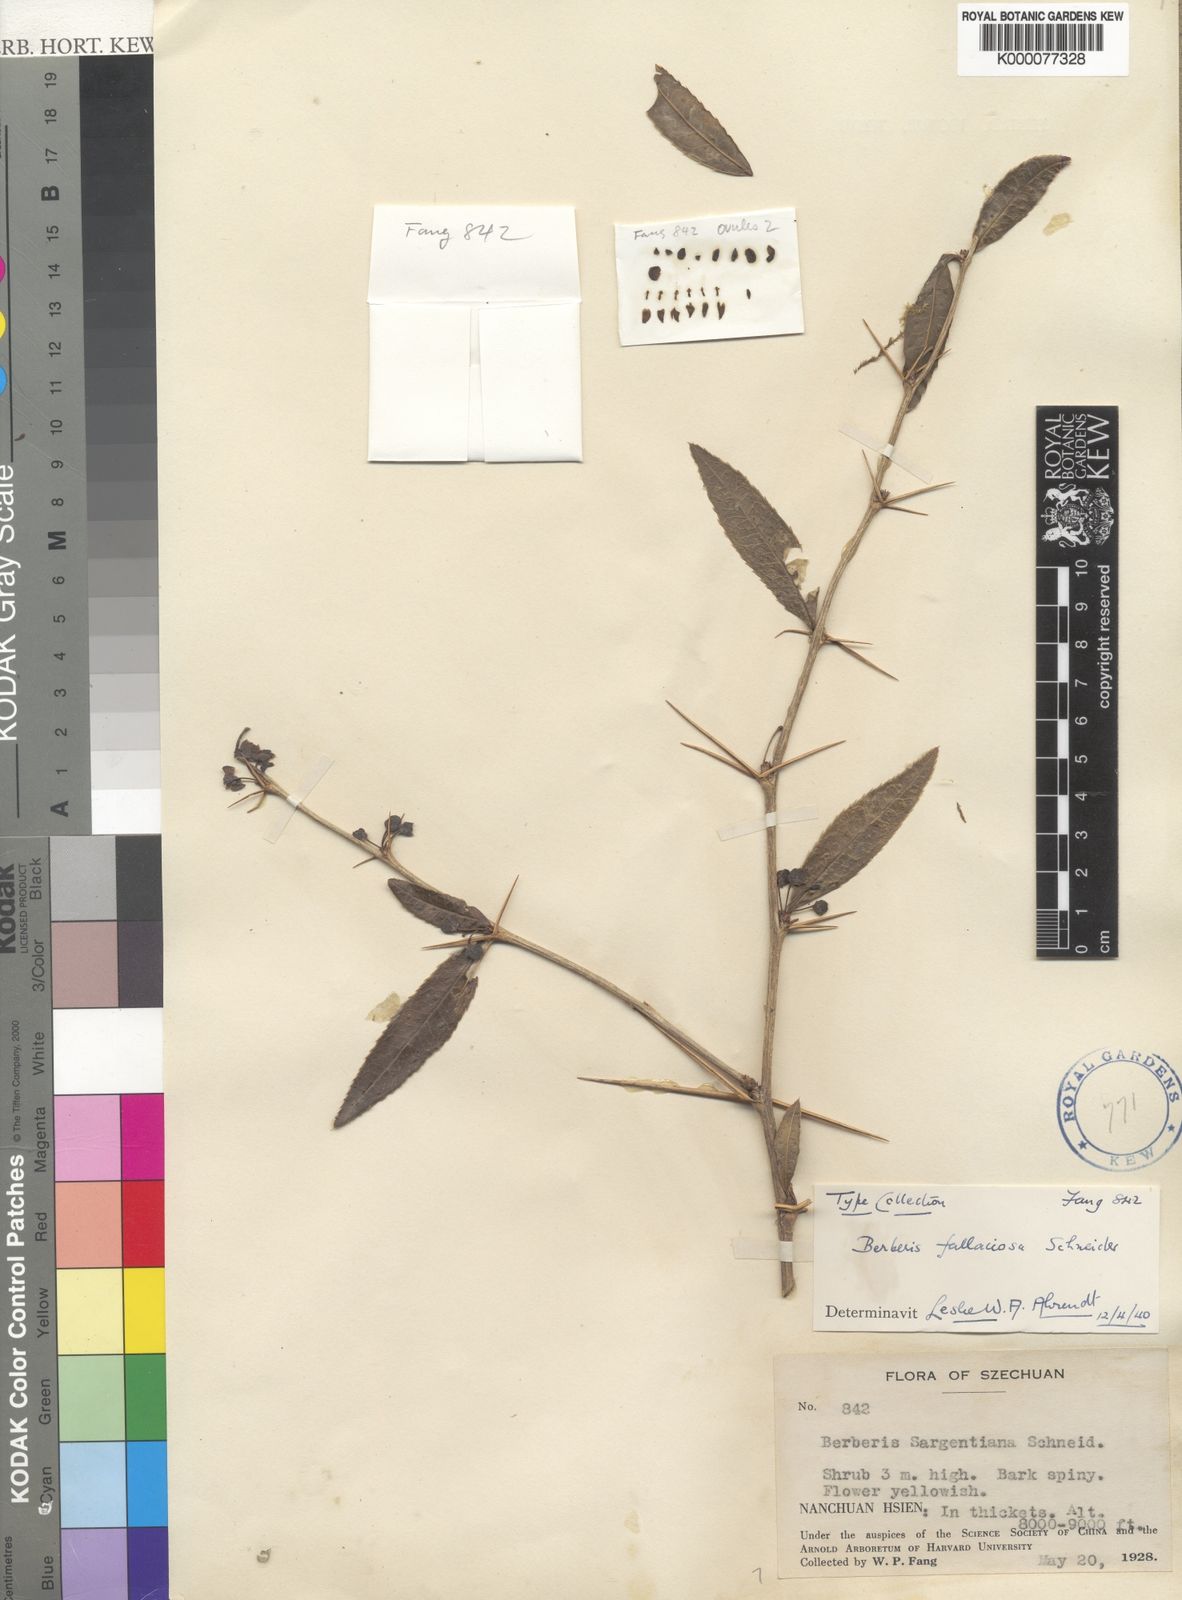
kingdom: Plantae
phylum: Tracheophyta
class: Magnoliopsida
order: Ranunculales
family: Berberidaceae
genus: Berberis
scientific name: Berberis fallaciosa
